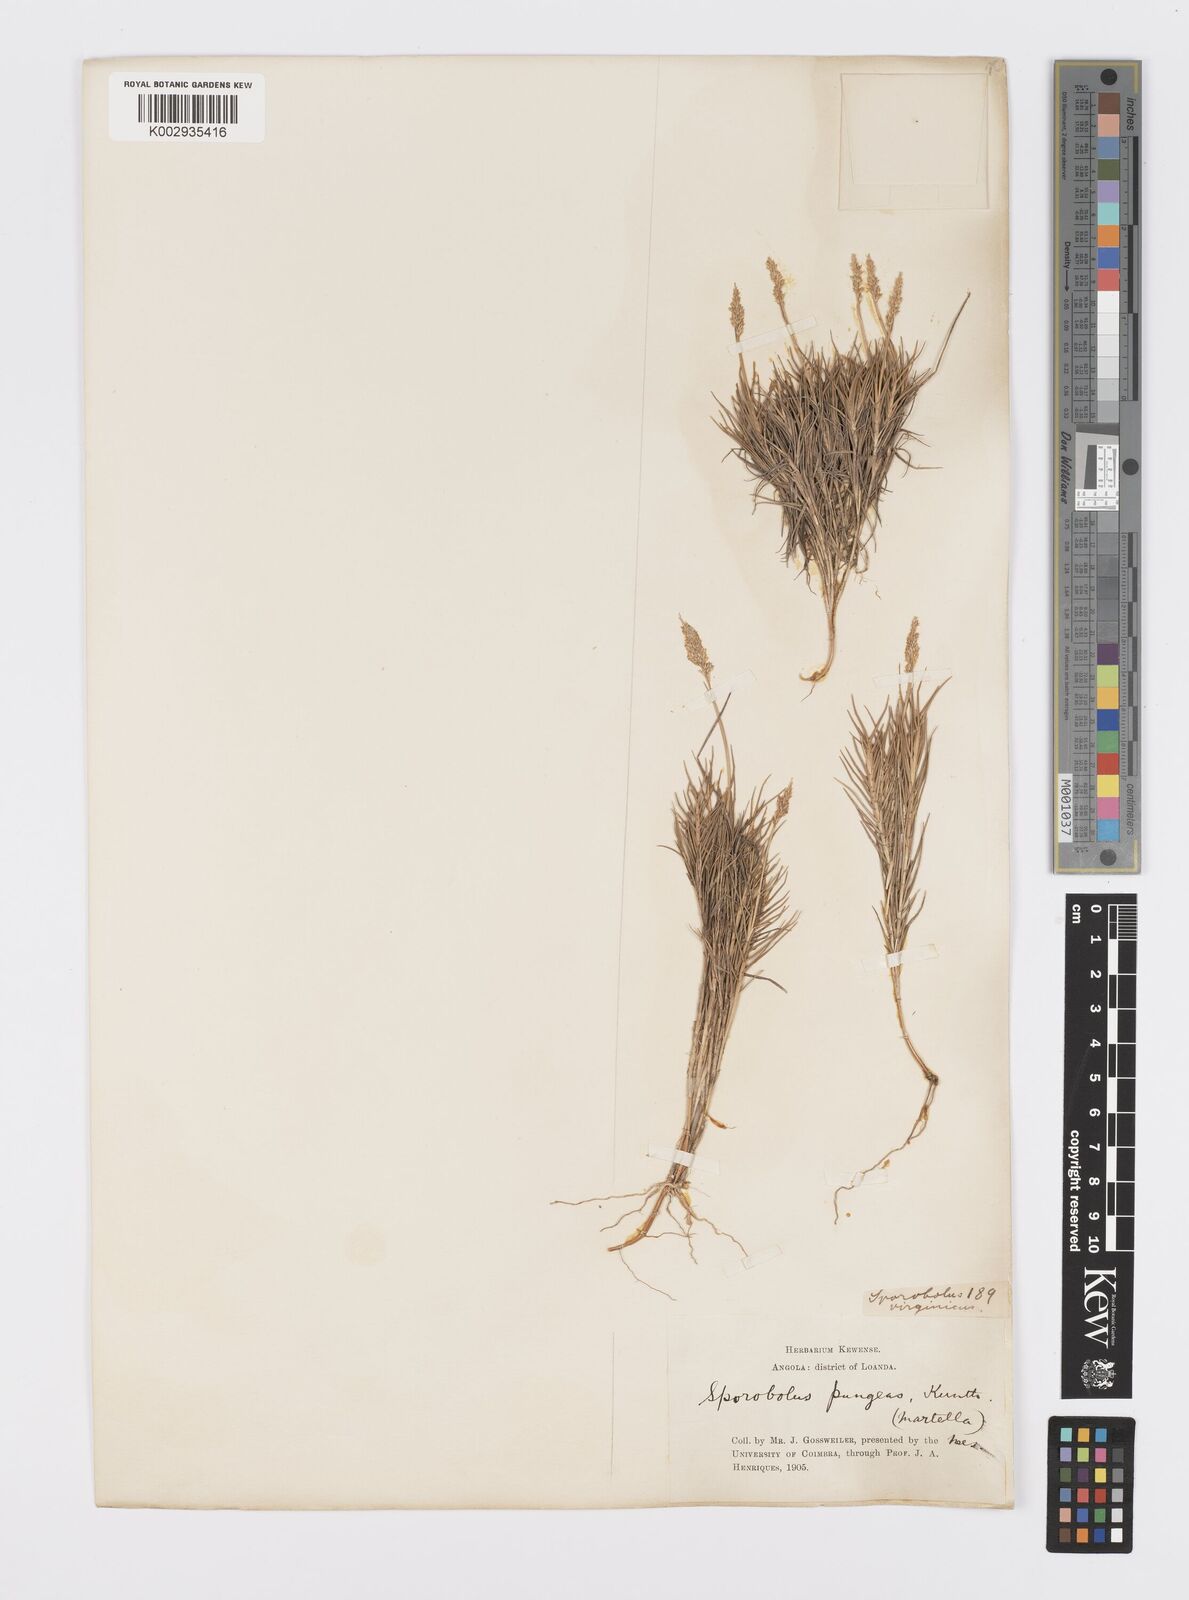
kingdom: Plantae
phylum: Tracheophyta
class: Liliopsida
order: Poales
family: Poaceae
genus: Sporobolus
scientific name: Sporobolus virginicus
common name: Beach dropseed
